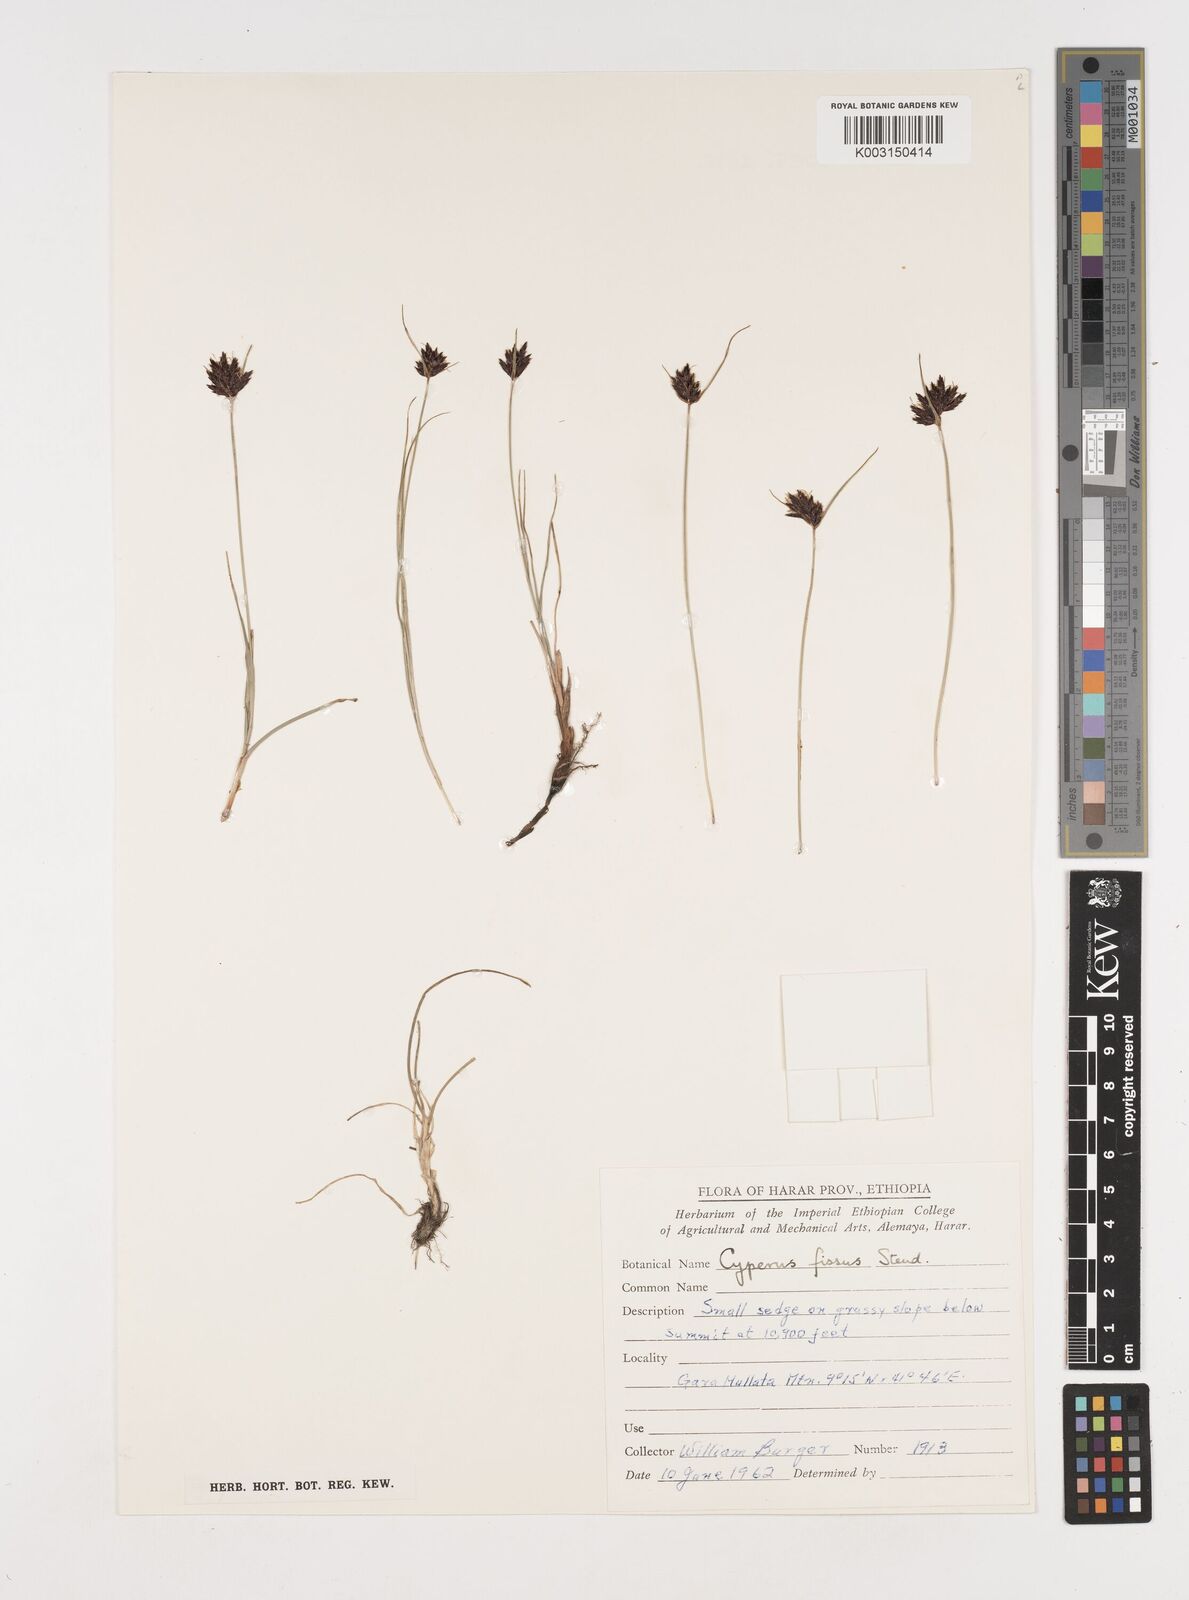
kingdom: Plantae
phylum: Tracheophyta
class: Liliopsida
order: Poales
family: Cyperaceae
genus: Cyperus
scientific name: Cyperus fissus
